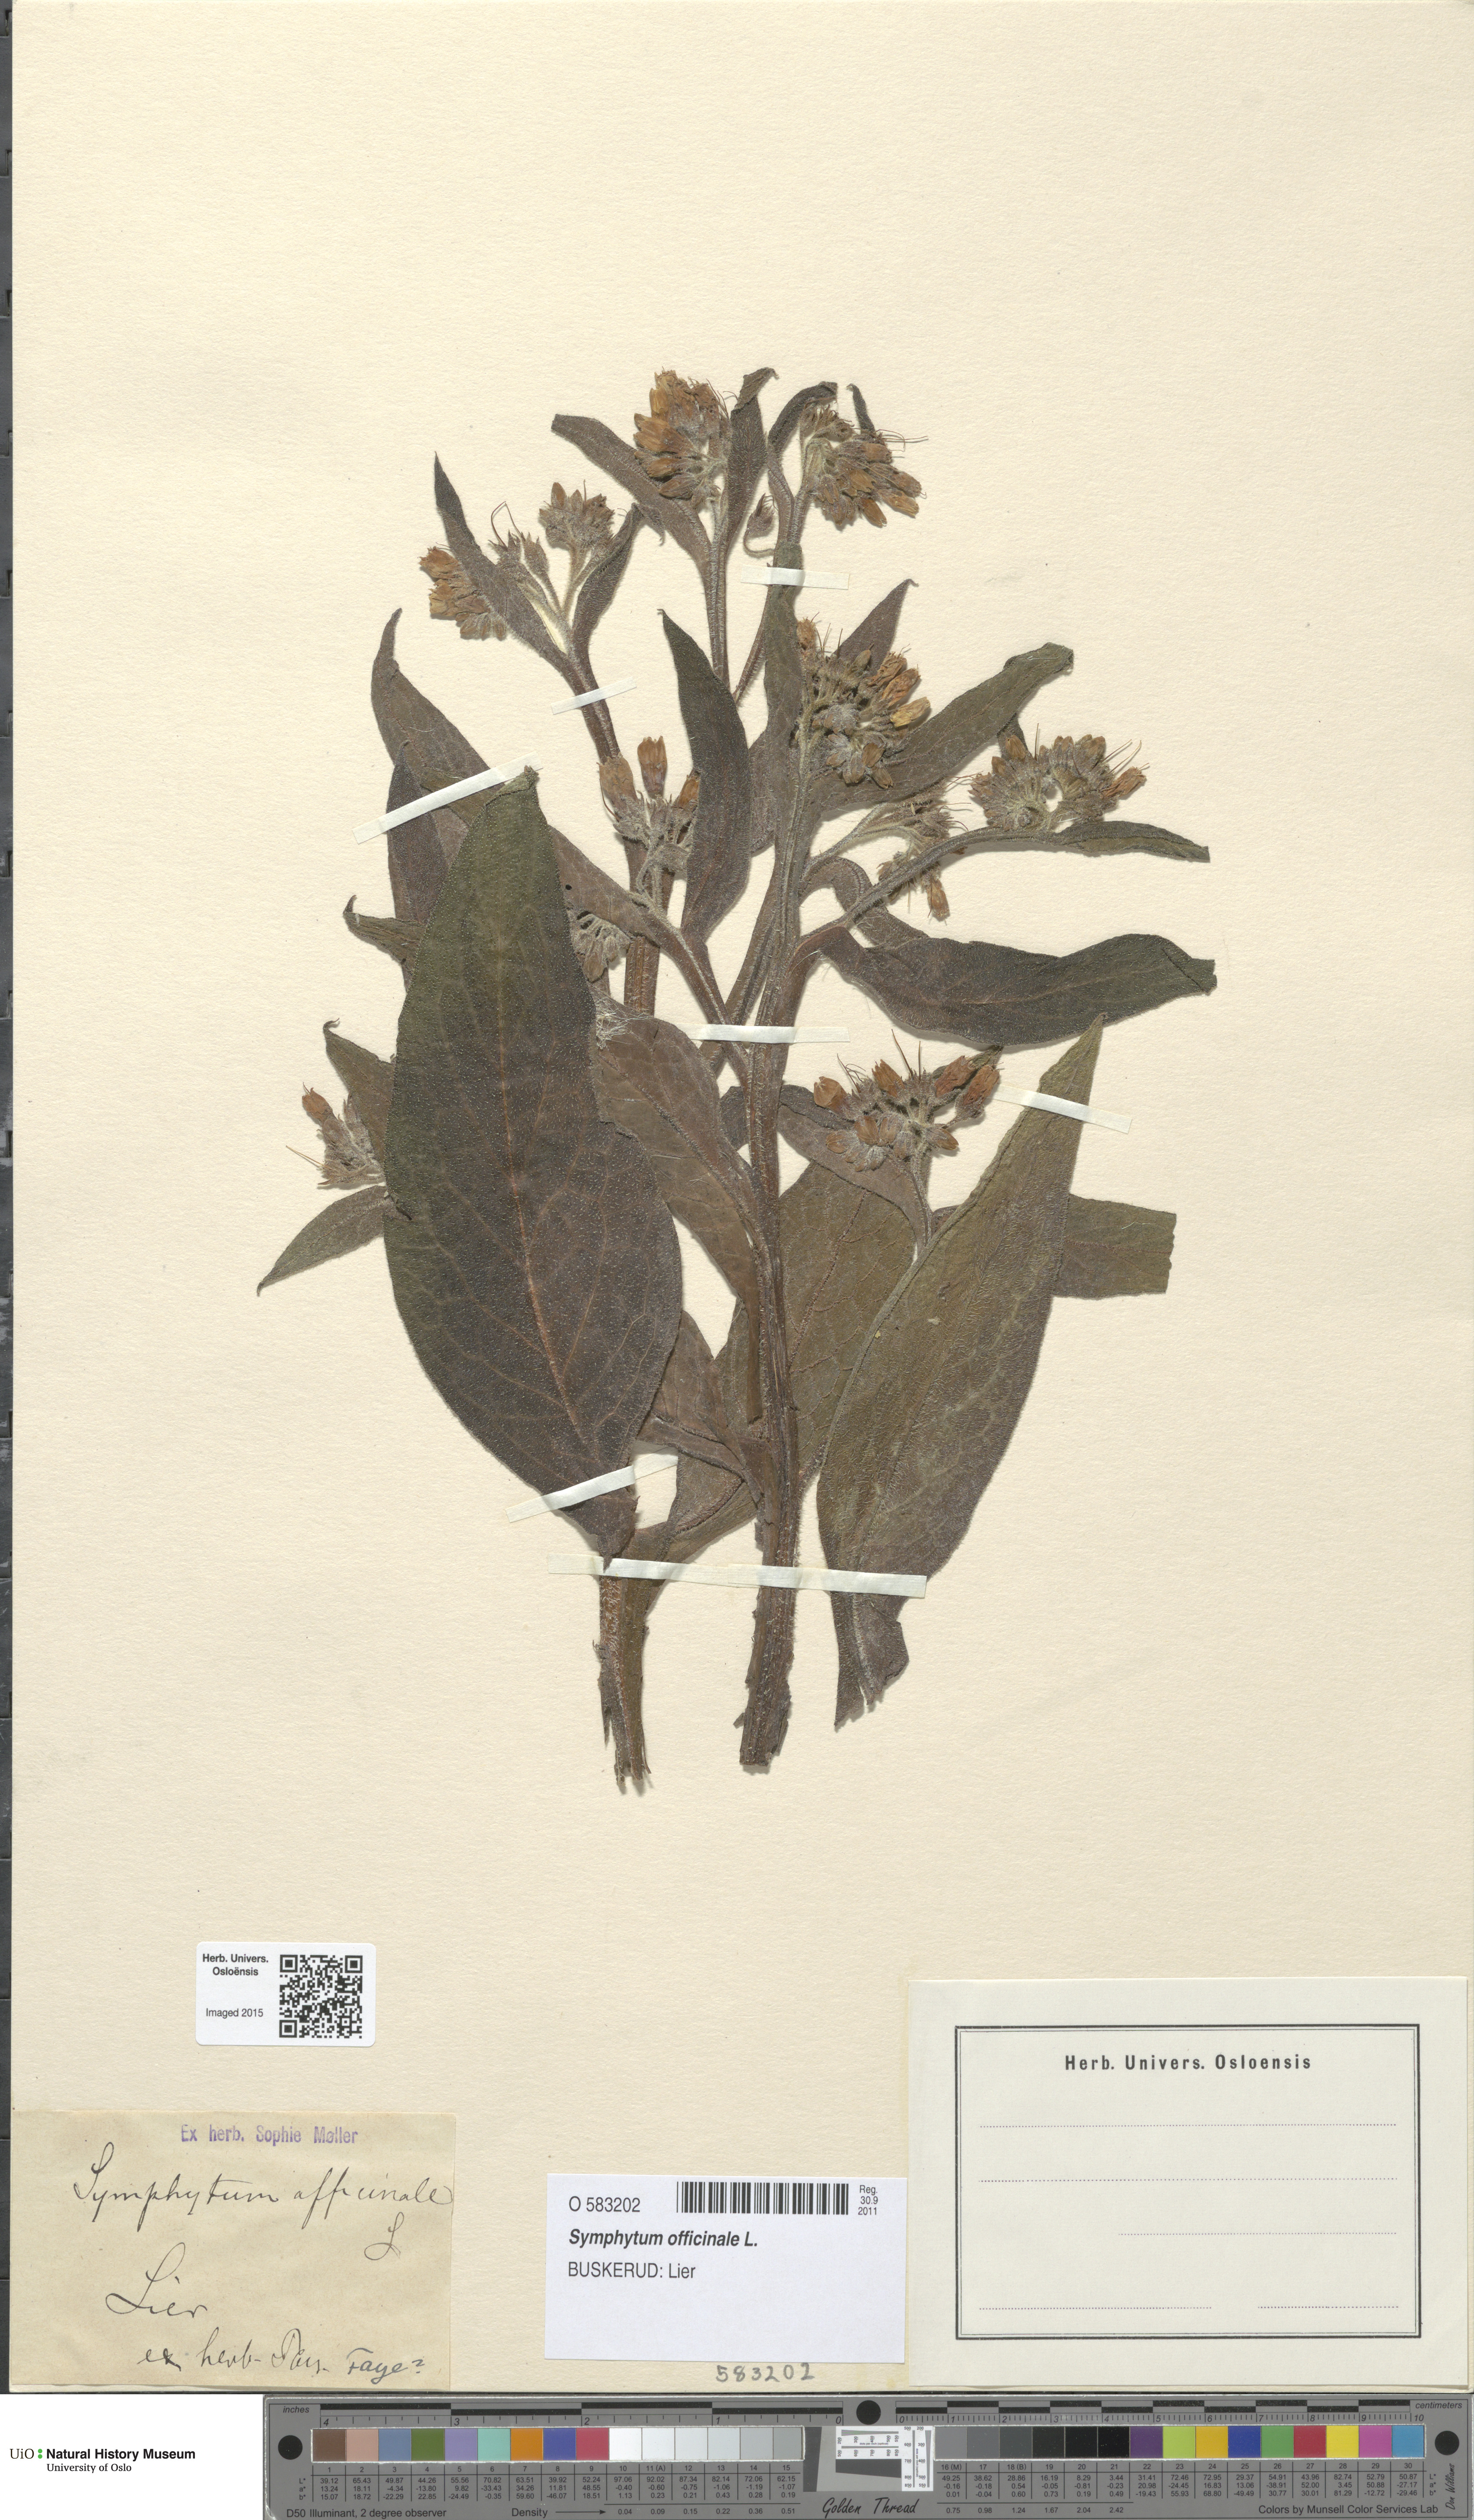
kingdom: Plantae
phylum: Tracheophyta
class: Magnoliopsida
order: Boraginales
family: Boraginaceae
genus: Symphytum
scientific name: Symphytum officinale
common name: Common comfrey
